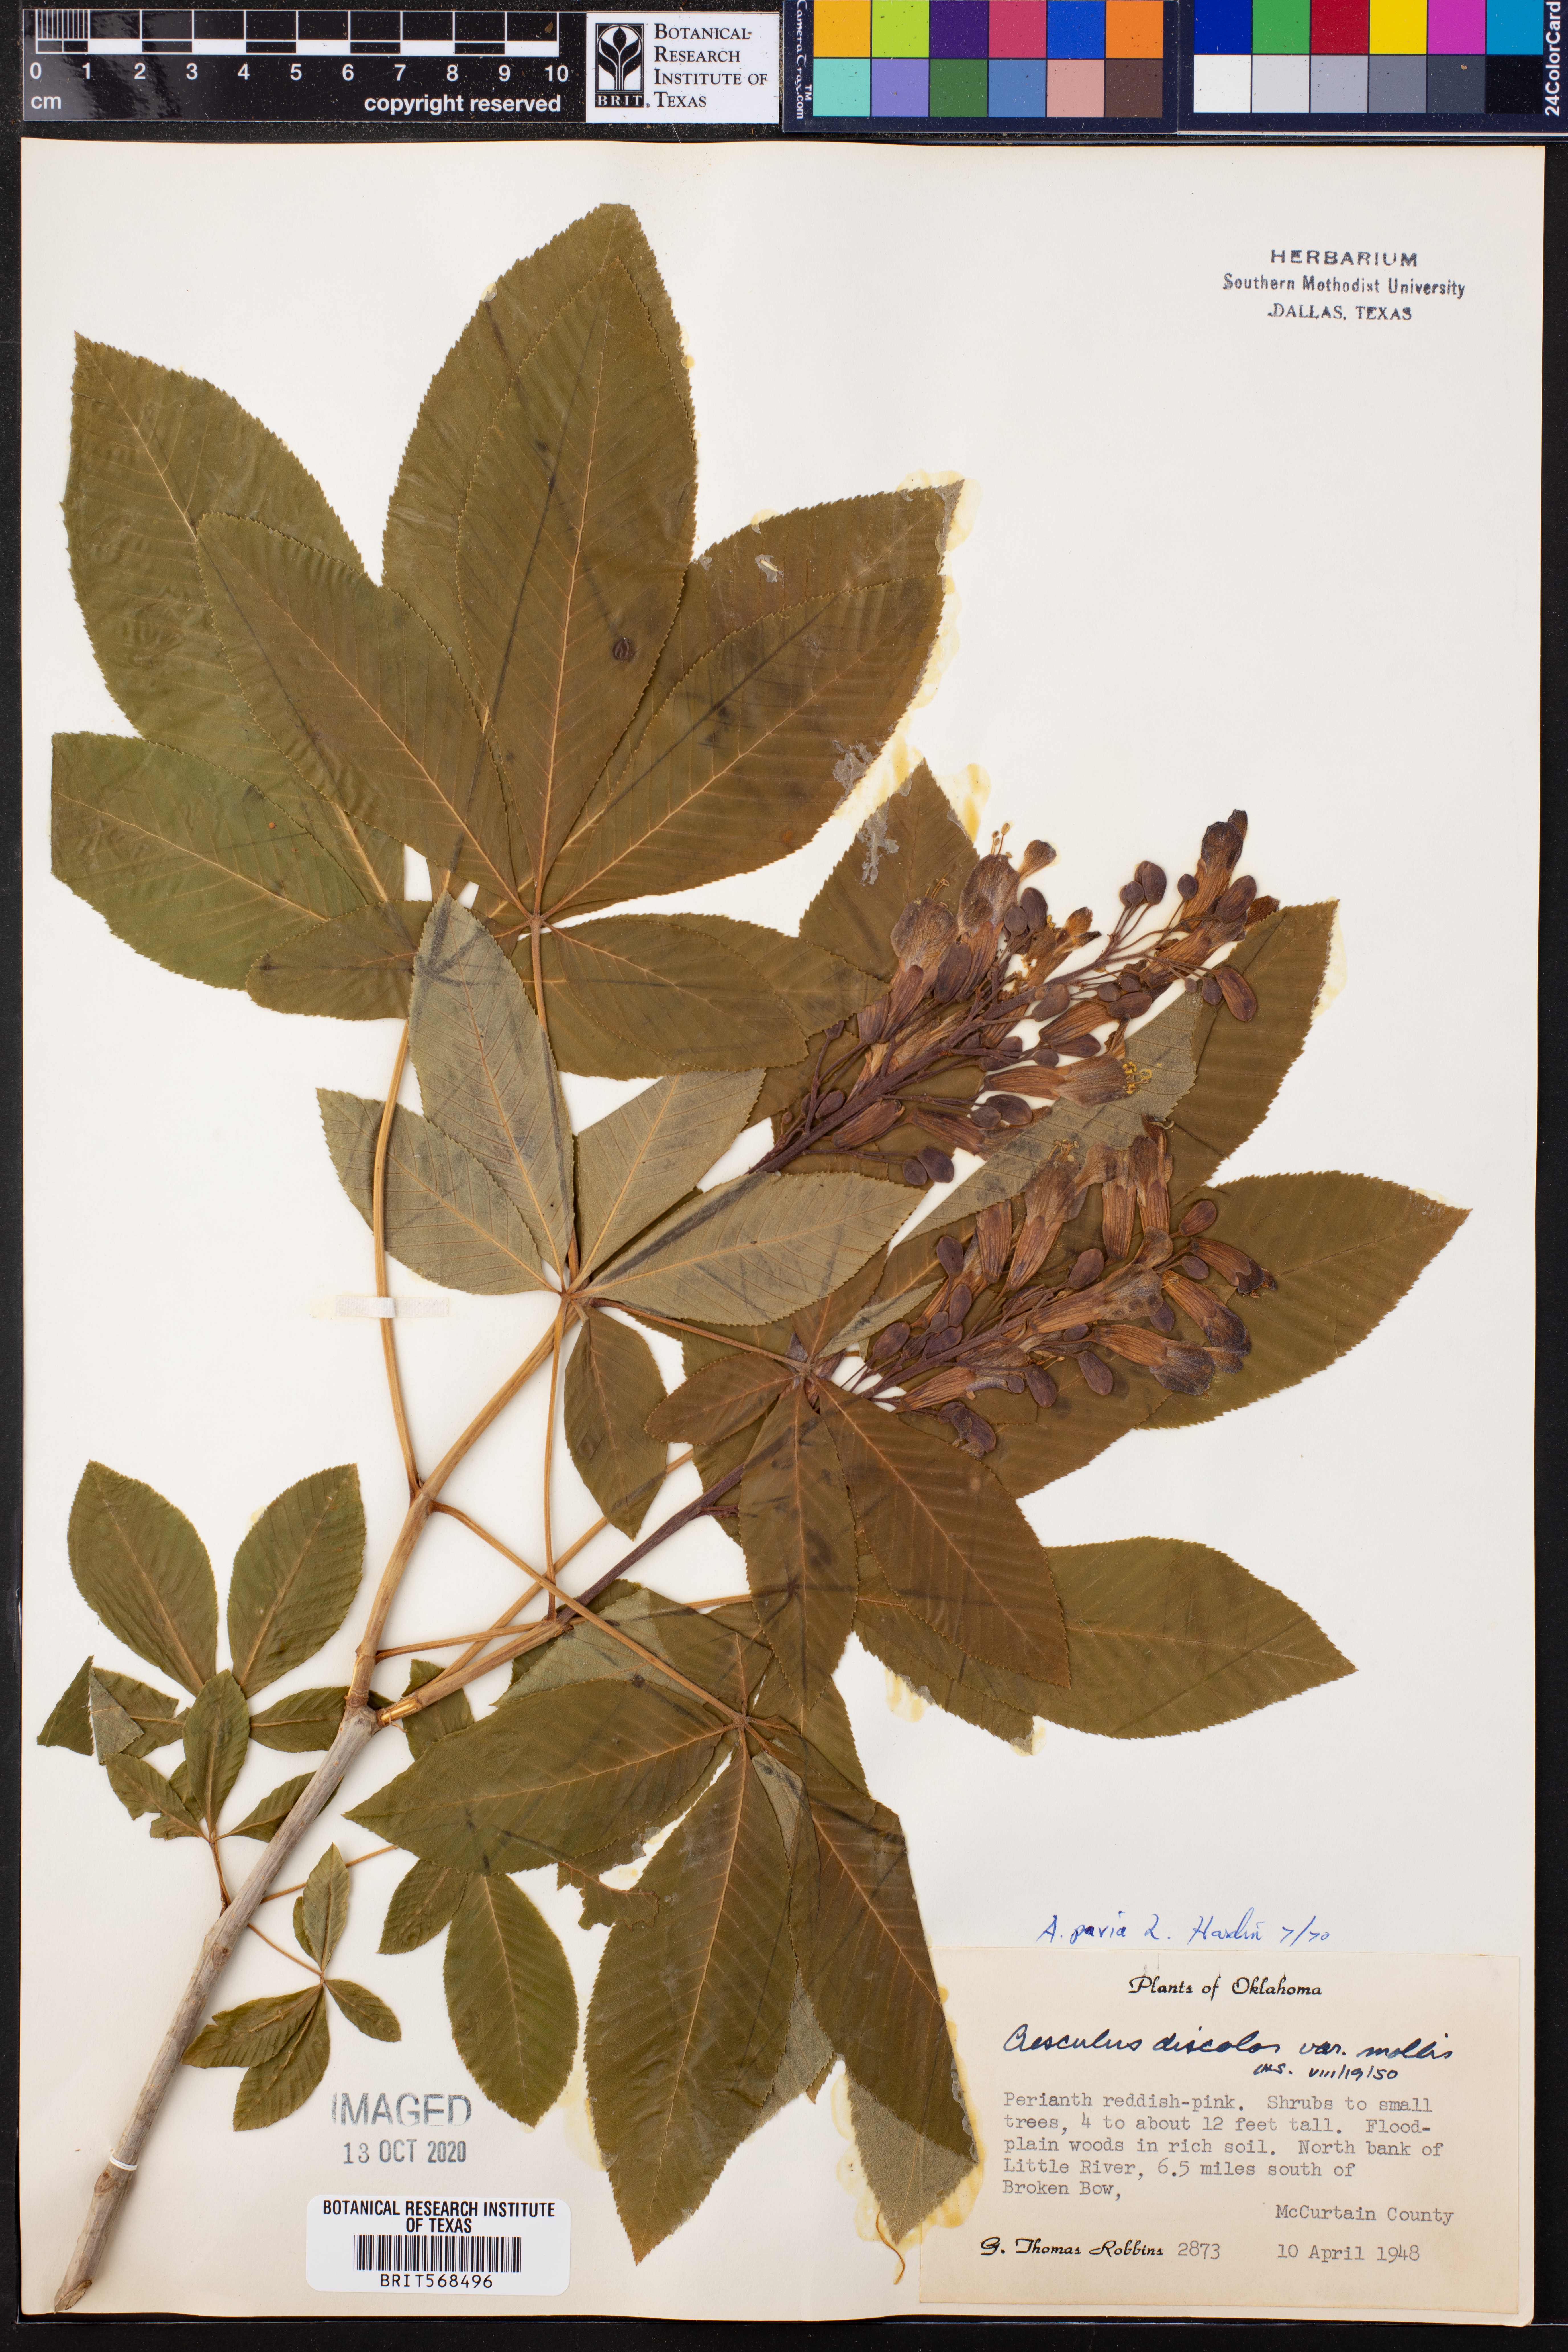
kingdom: Plantae
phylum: Tracheophyta
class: Magnoliopsida
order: Sapindales
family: Sapindaceae
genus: Aesculus
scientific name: Aesculus pavia
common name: Red buckeye
